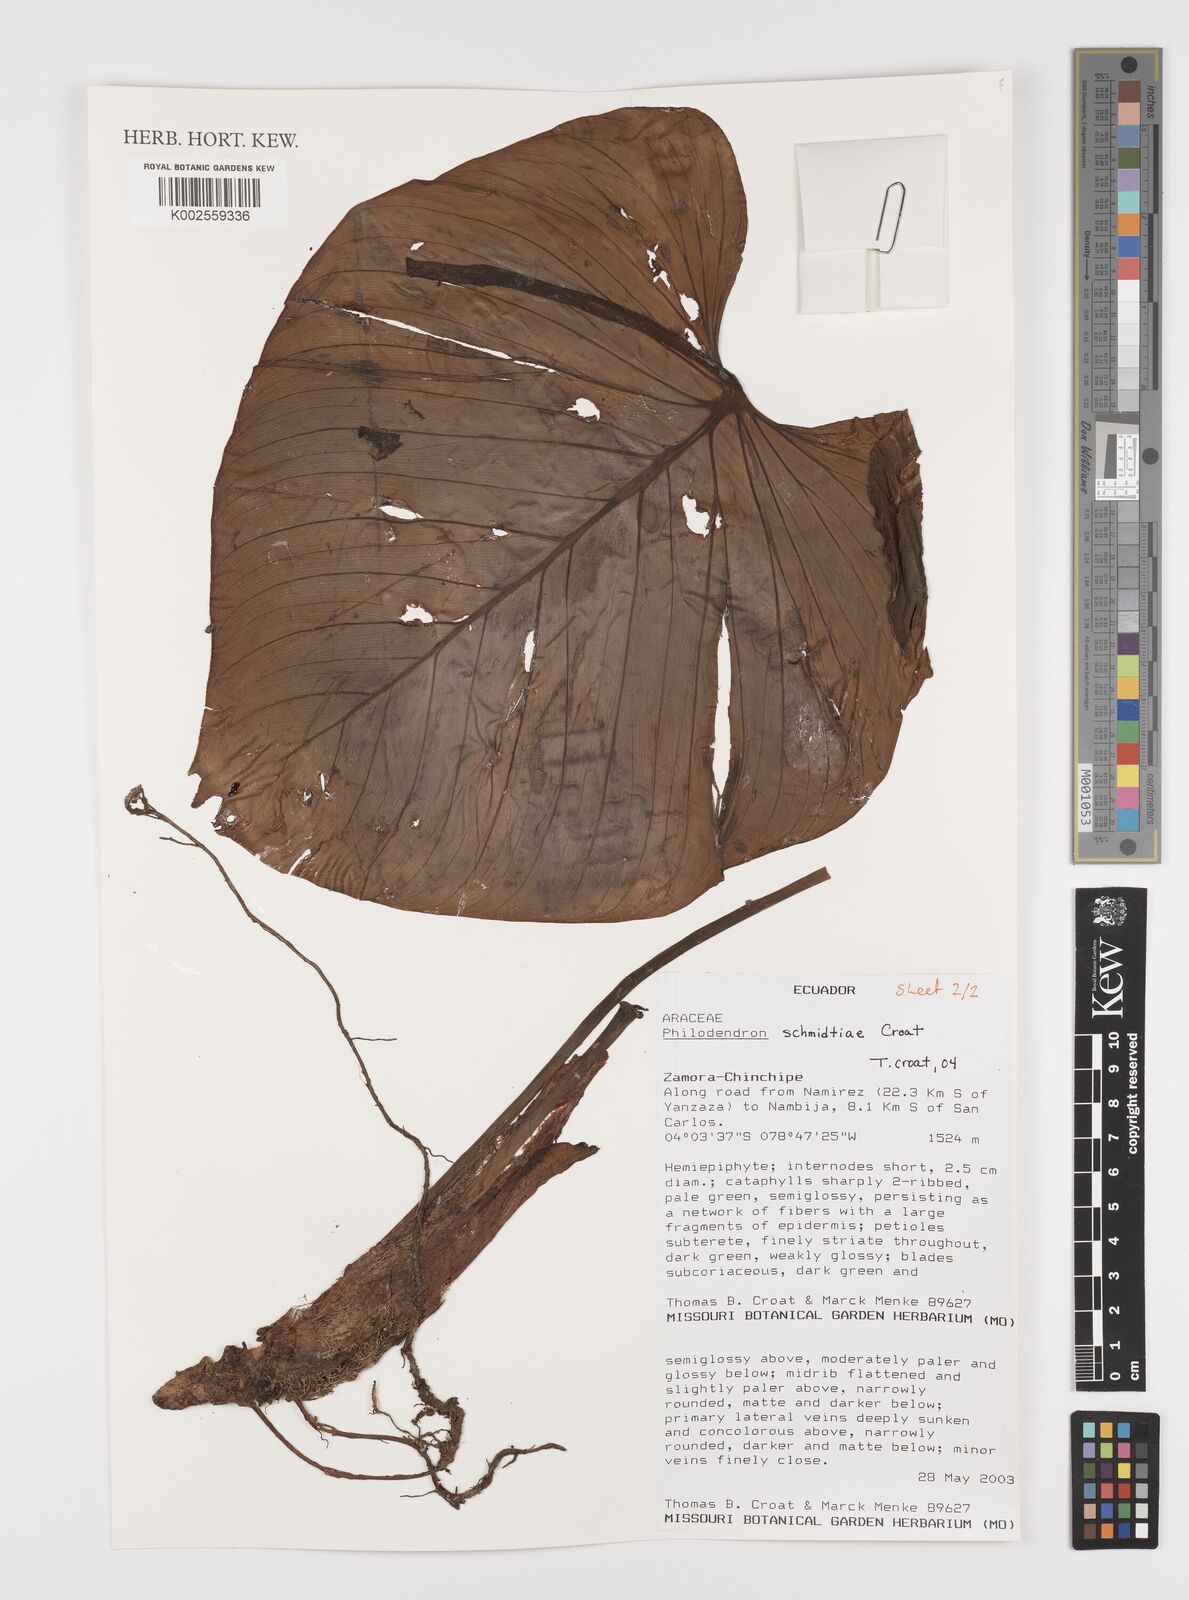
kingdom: Plantae
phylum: Tracheophyta
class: Liliopsida
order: Alismatales
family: Araceae
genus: Philodendron
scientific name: Philodendron schmidtiae
